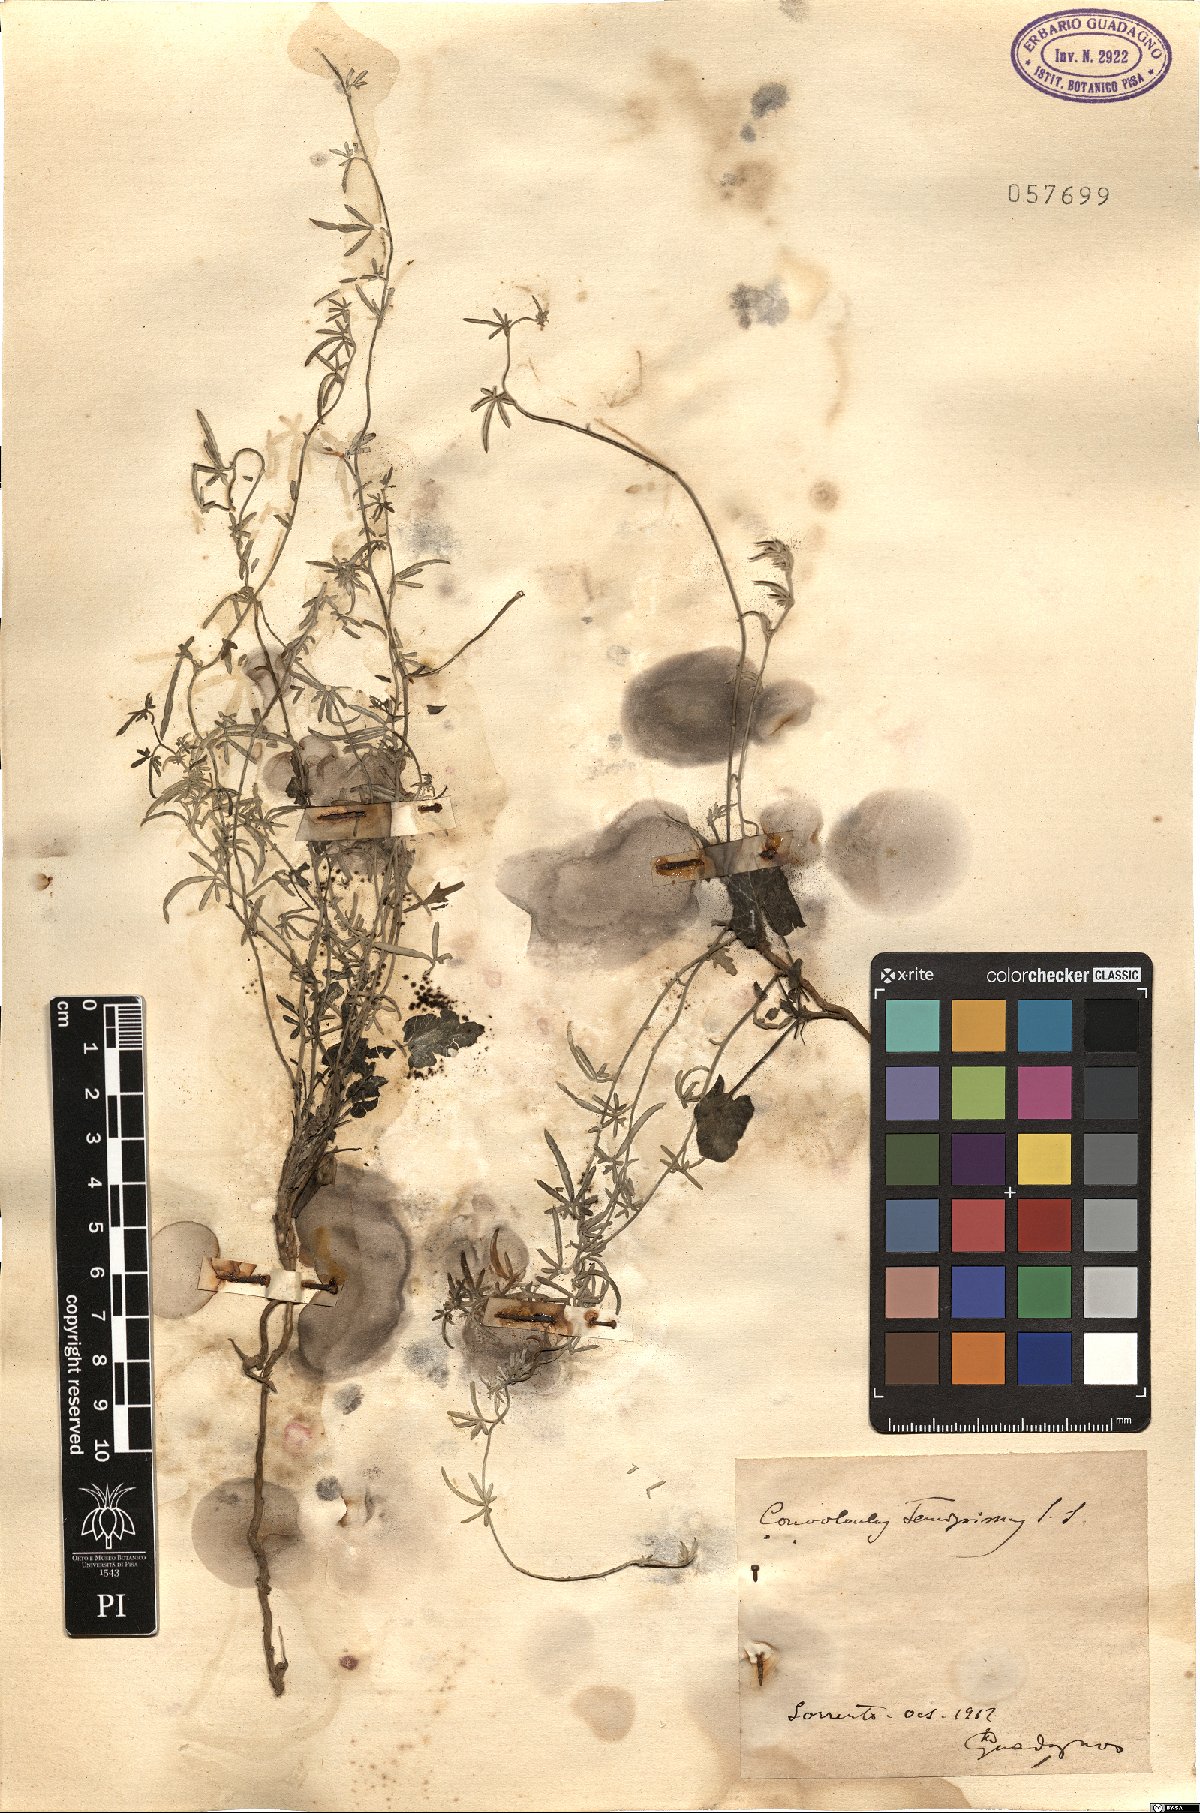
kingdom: Plantae
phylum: Tracheophyta
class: Magnoliopsida
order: Solanales
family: Convolvulaceae
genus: Convolvulus
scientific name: Convolvulus elegantissimus
